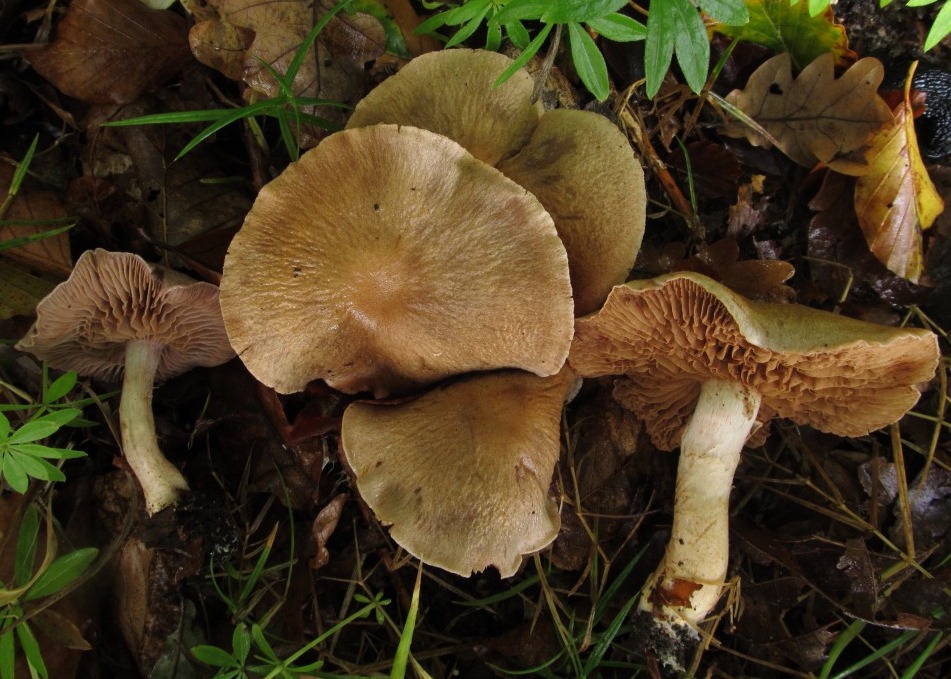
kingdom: Fungi
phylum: Basidiomycota
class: Agaricomycetes
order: Agaricales
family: Cortinariaceae
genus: Cortinarius
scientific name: Cortinarius pelerinii
